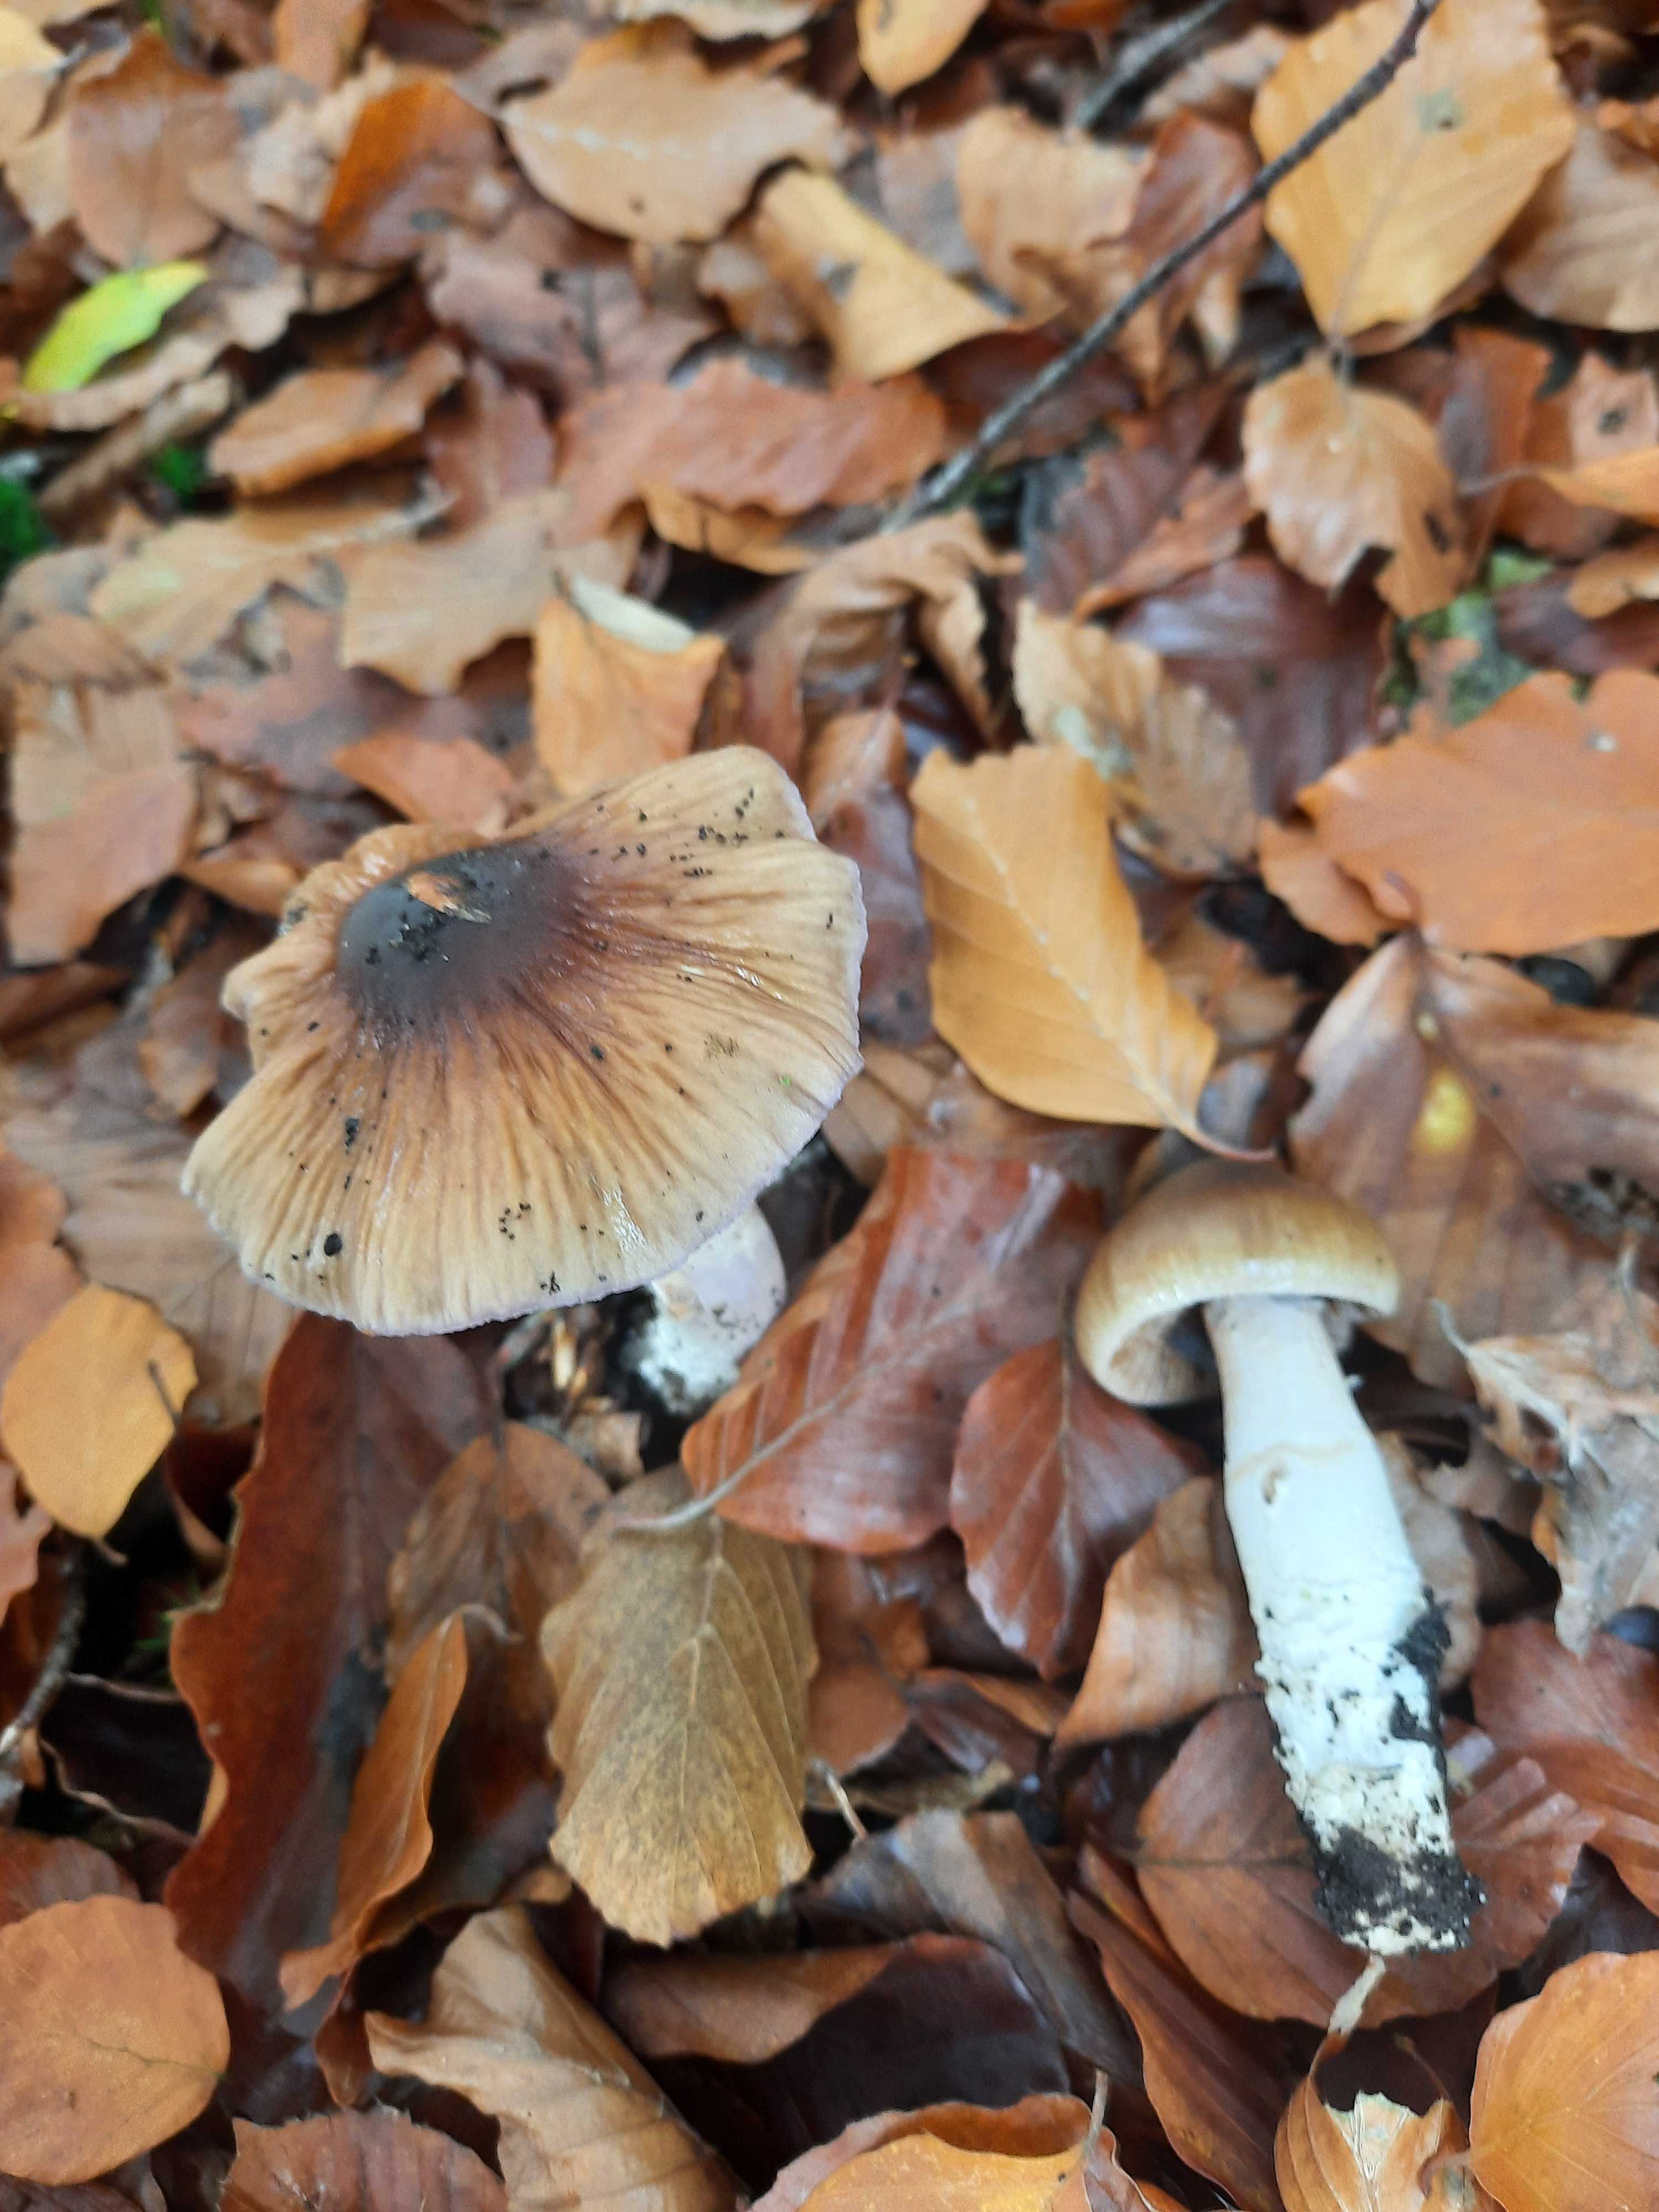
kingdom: Fungi
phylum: Basidiomycota
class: Agaricomycetes
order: Agaricales
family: Cortinariaceae
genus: Cortinarius
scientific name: Cortinarius elatior
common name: høj slørhat
